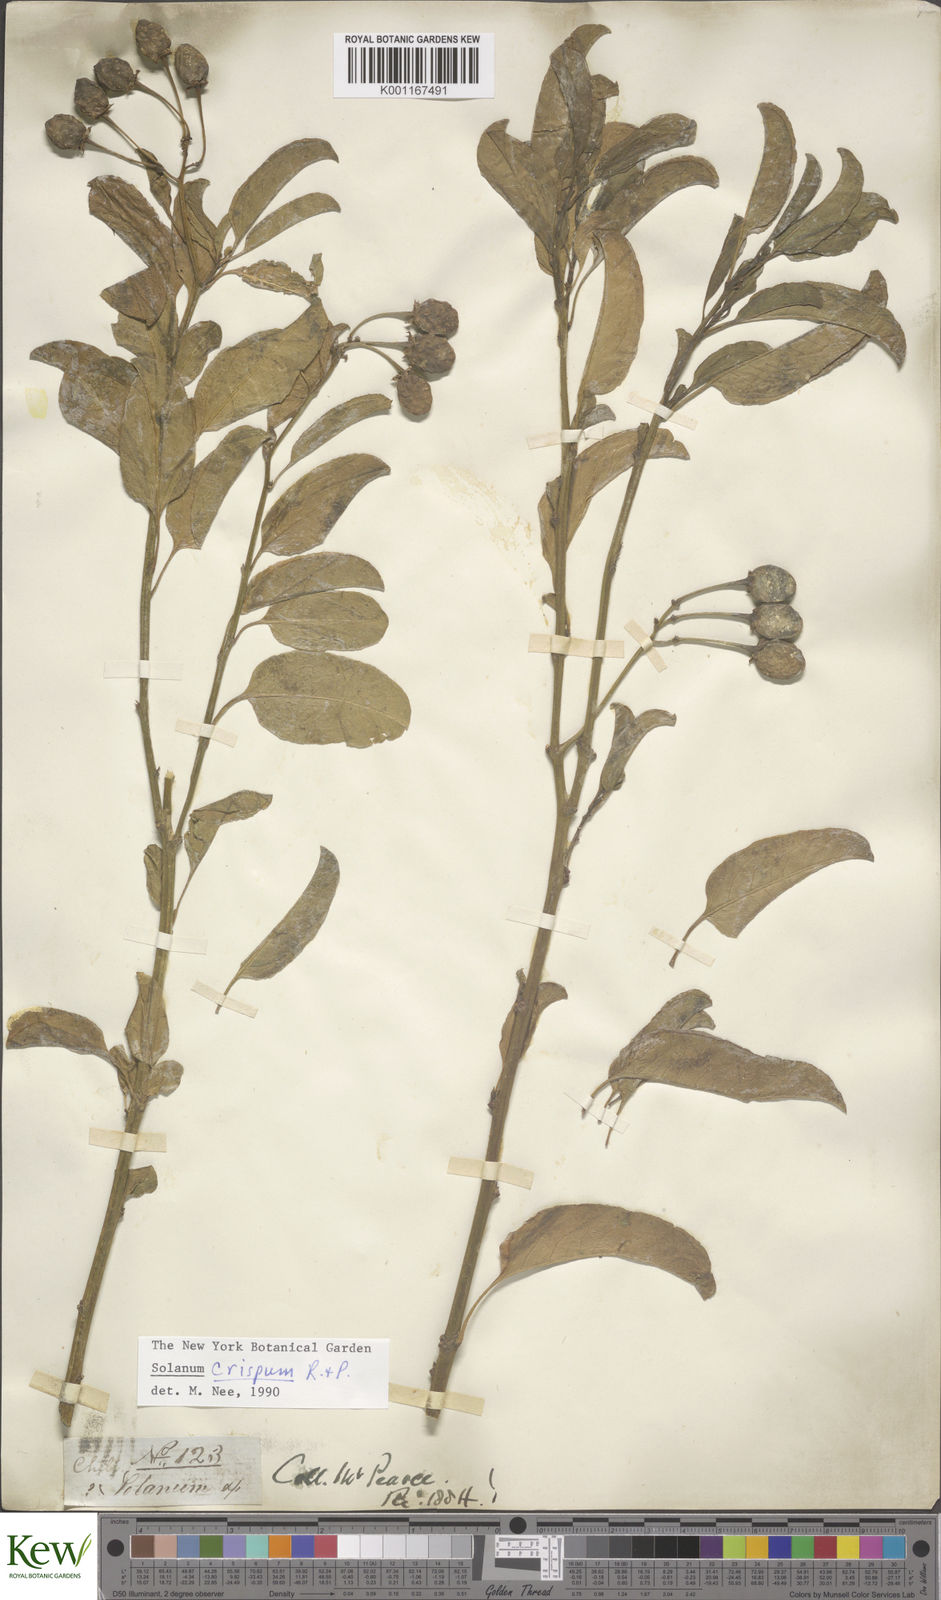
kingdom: Plantae
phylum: Tracheophyta
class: Magnoliopsida
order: Solanales
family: Solanaceae
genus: Solanum
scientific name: Solanum crispum
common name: Chilean nightshade
